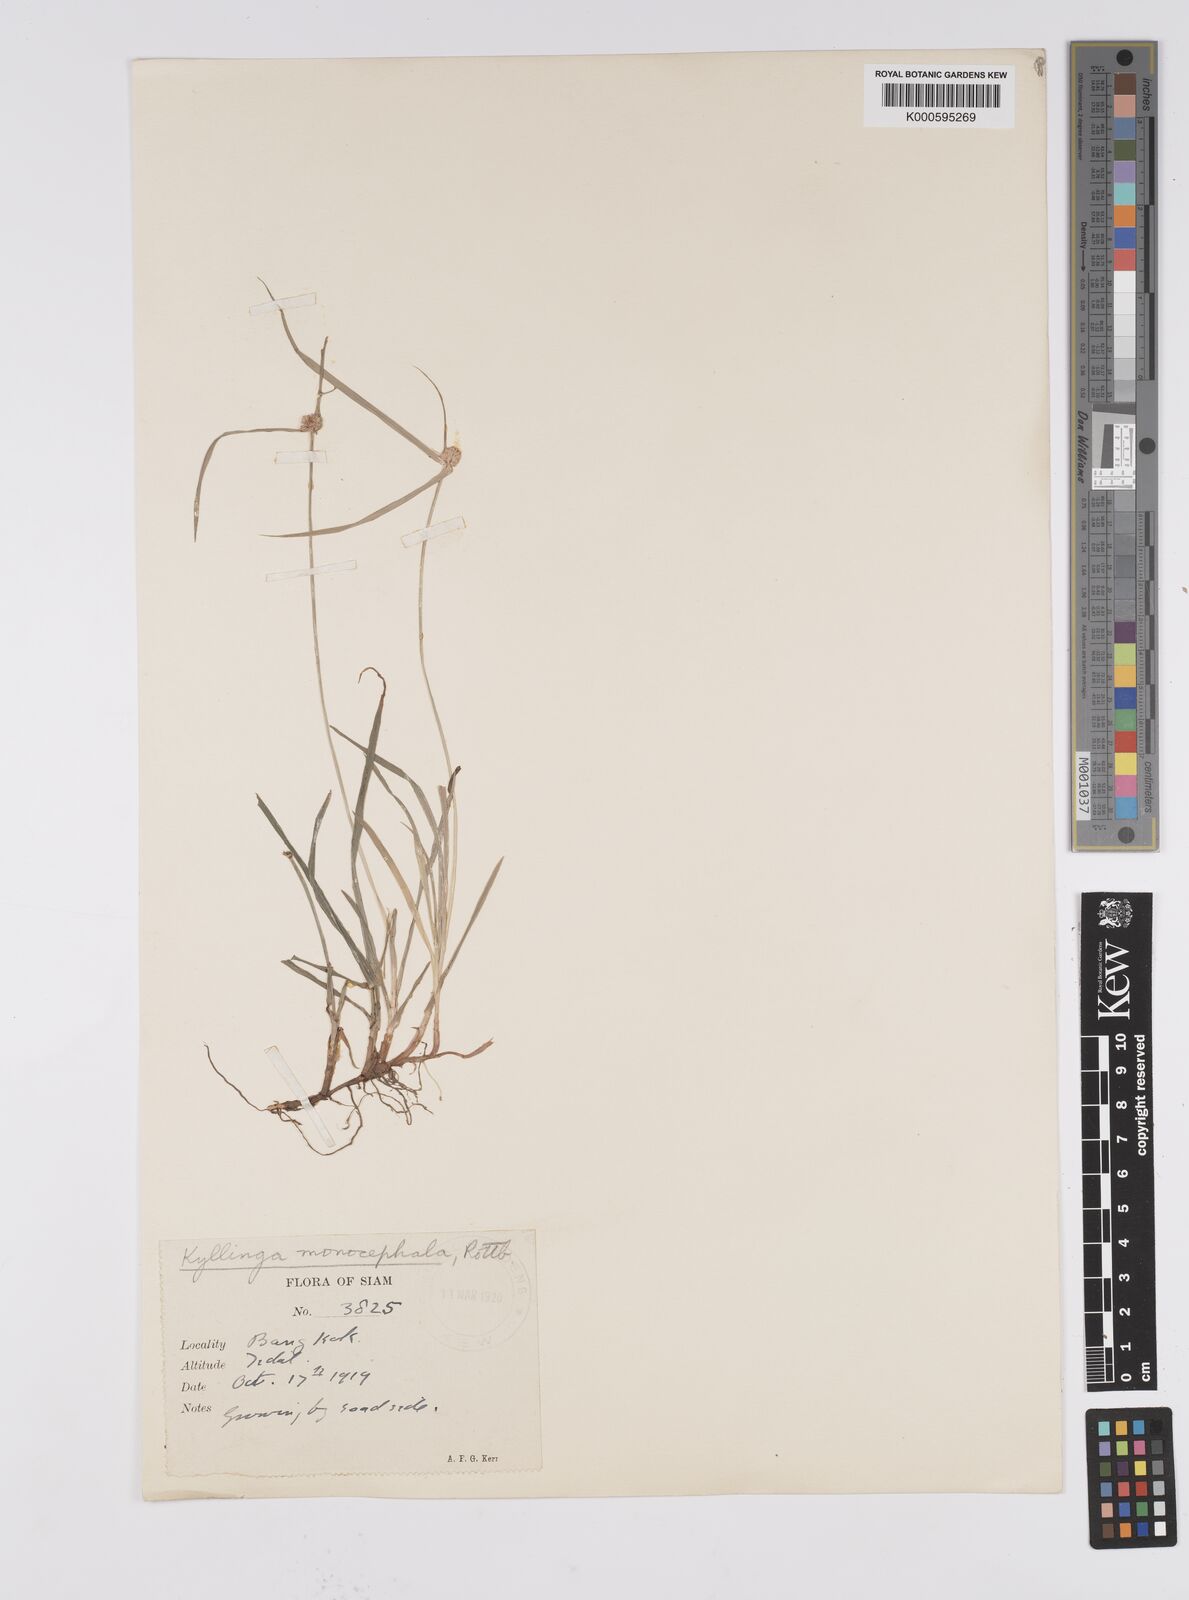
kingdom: Plantae
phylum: Tracheophyta
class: Liliopsida
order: Poales
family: Cyperaceae
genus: Cyperus
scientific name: Cyperus mindorensis
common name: Flatsedge
